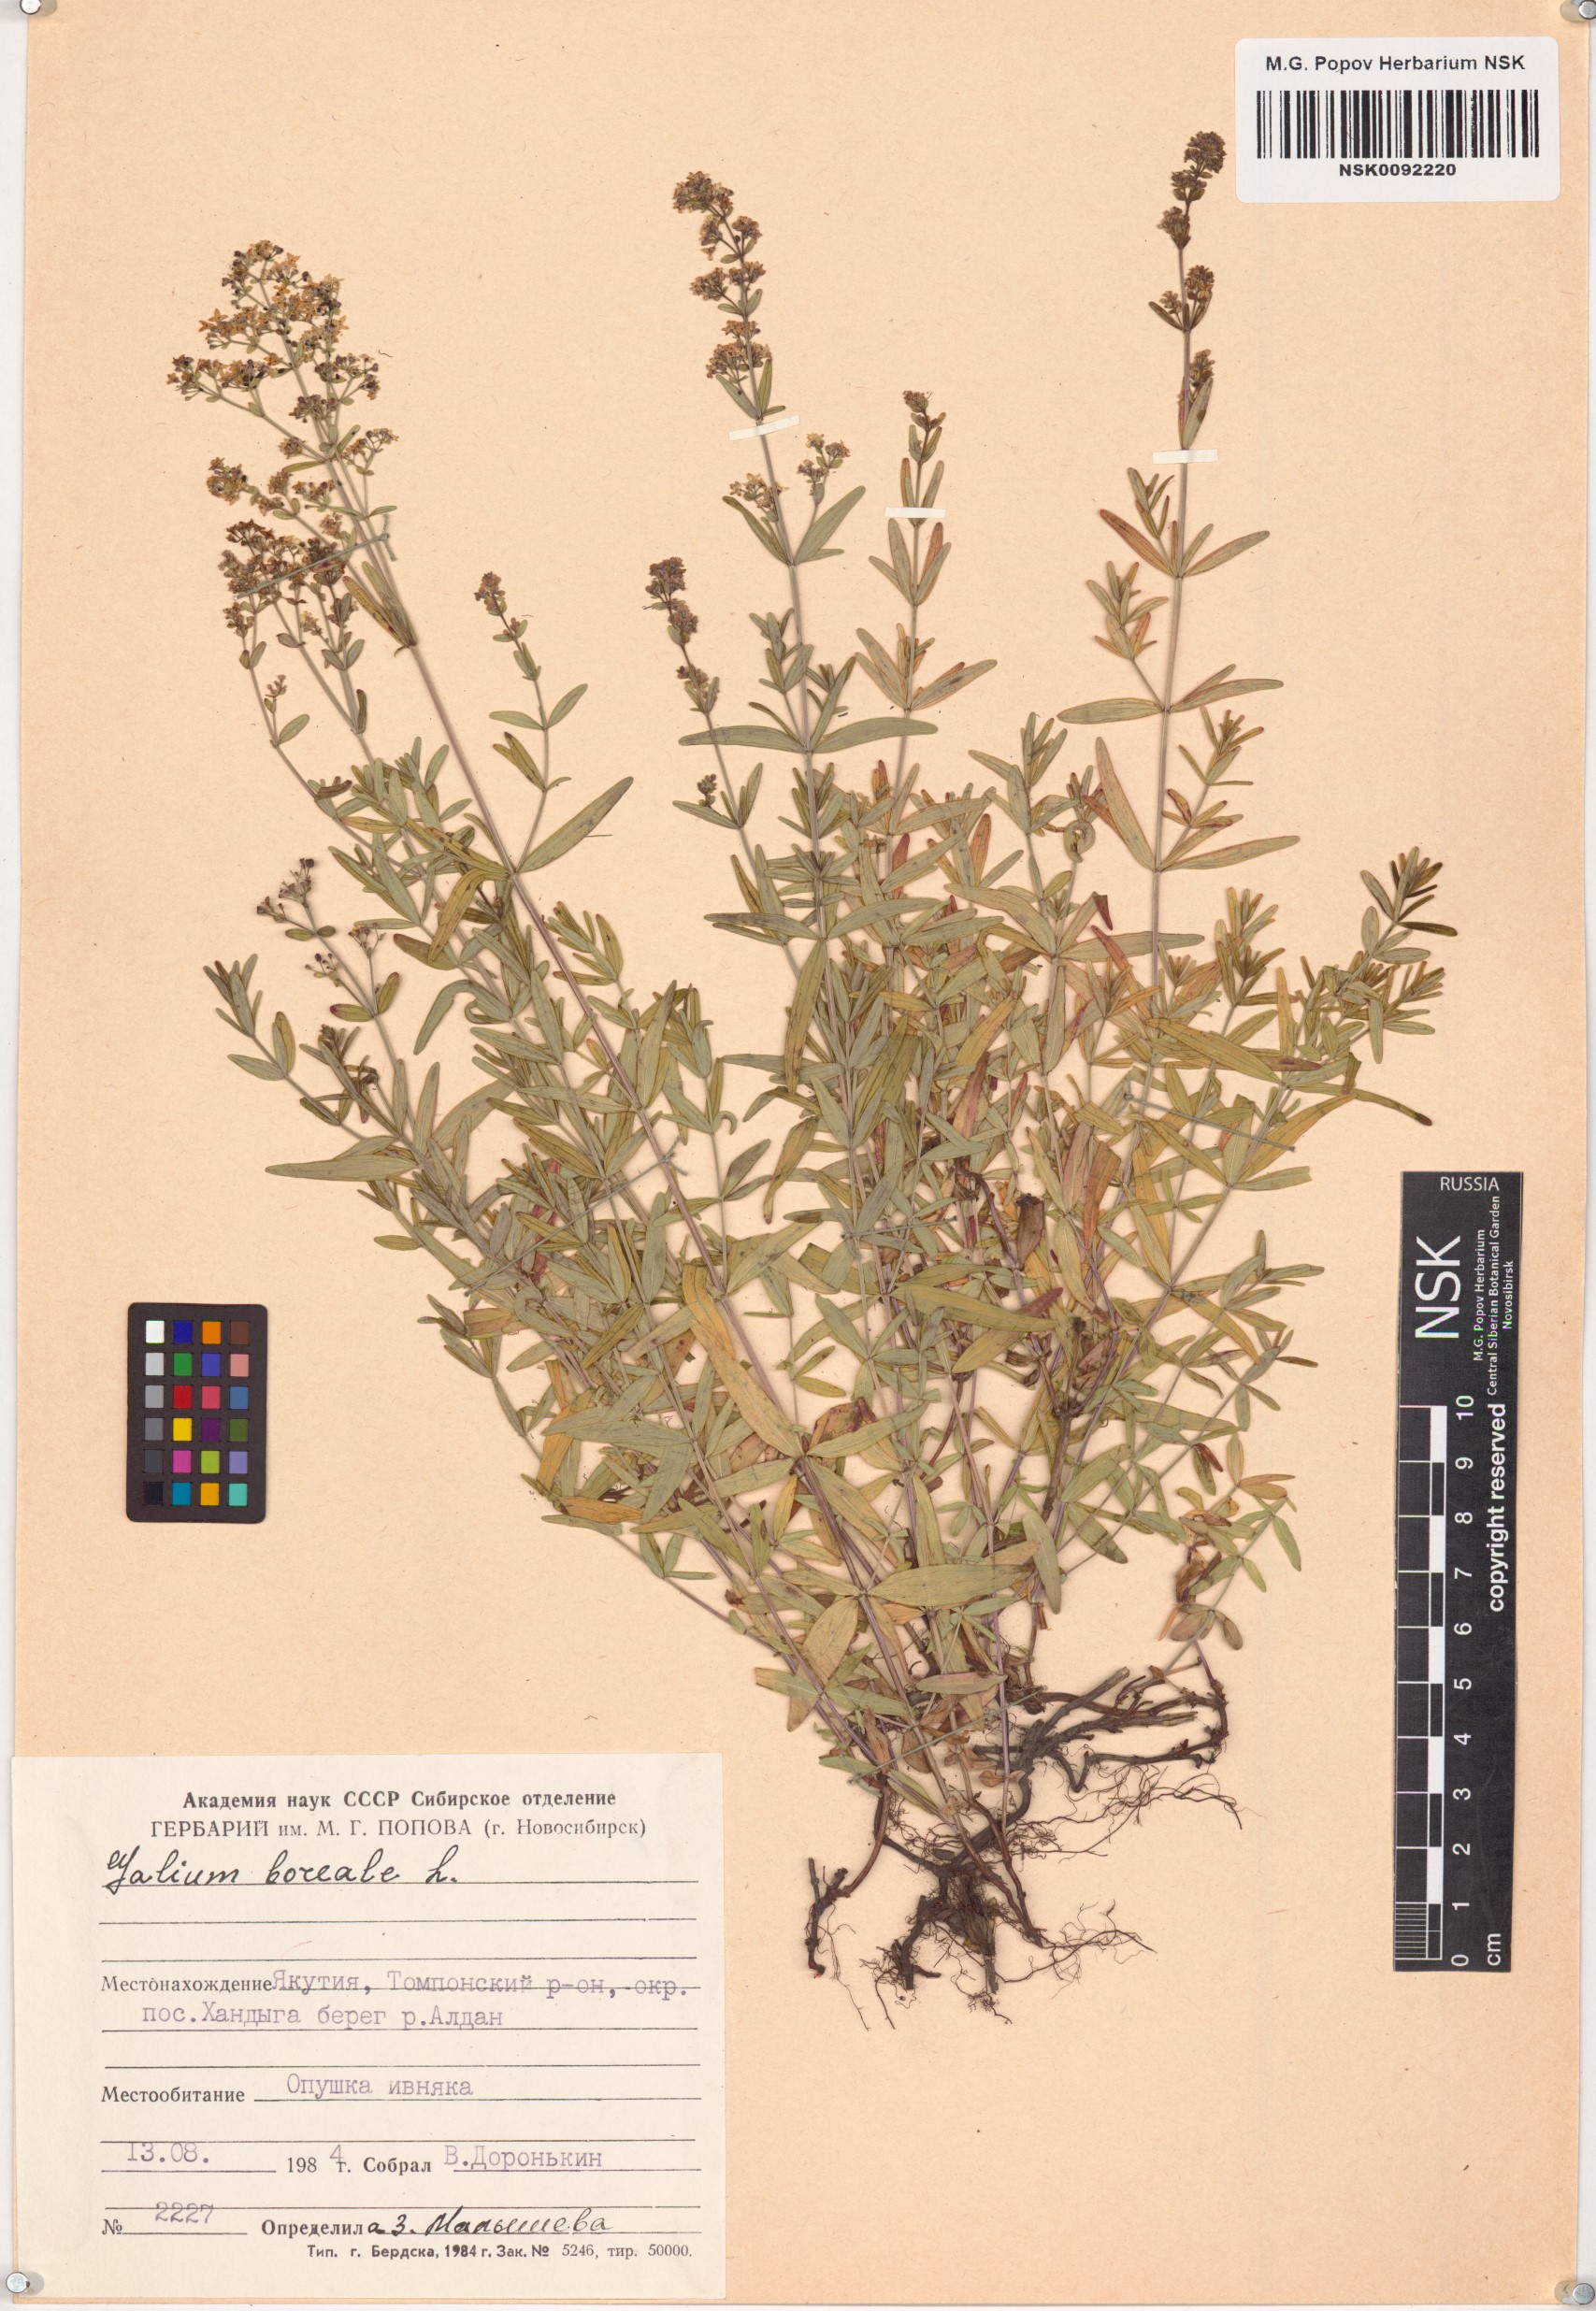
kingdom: Plantae
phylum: Tracheophyta
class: Magnoliopsida
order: Gentianales
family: Rubiaceae
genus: Galium
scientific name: Galium boreale
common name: Northern bedstraw
